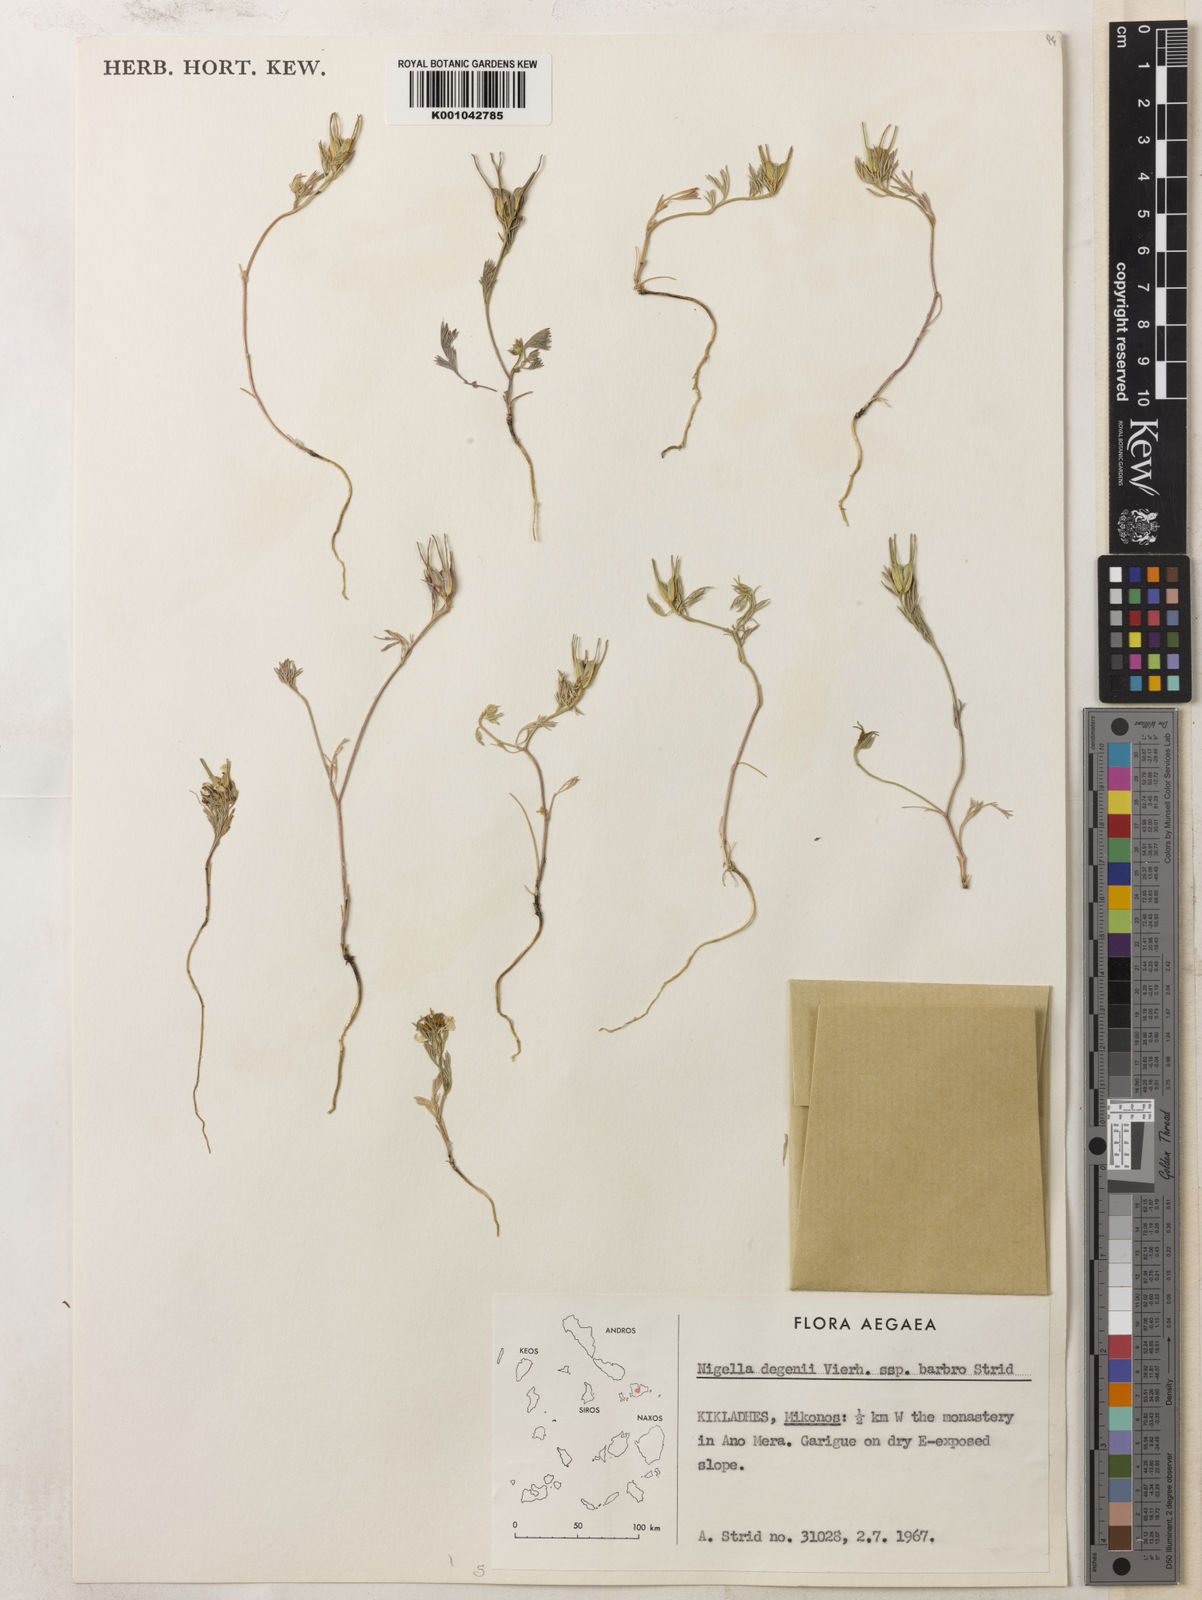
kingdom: Plantae
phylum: Tracheophyta
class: Magnoliopsida
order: Ranunculales
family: Ranunculaceae
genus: Nigella
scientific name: Nigella degenii
